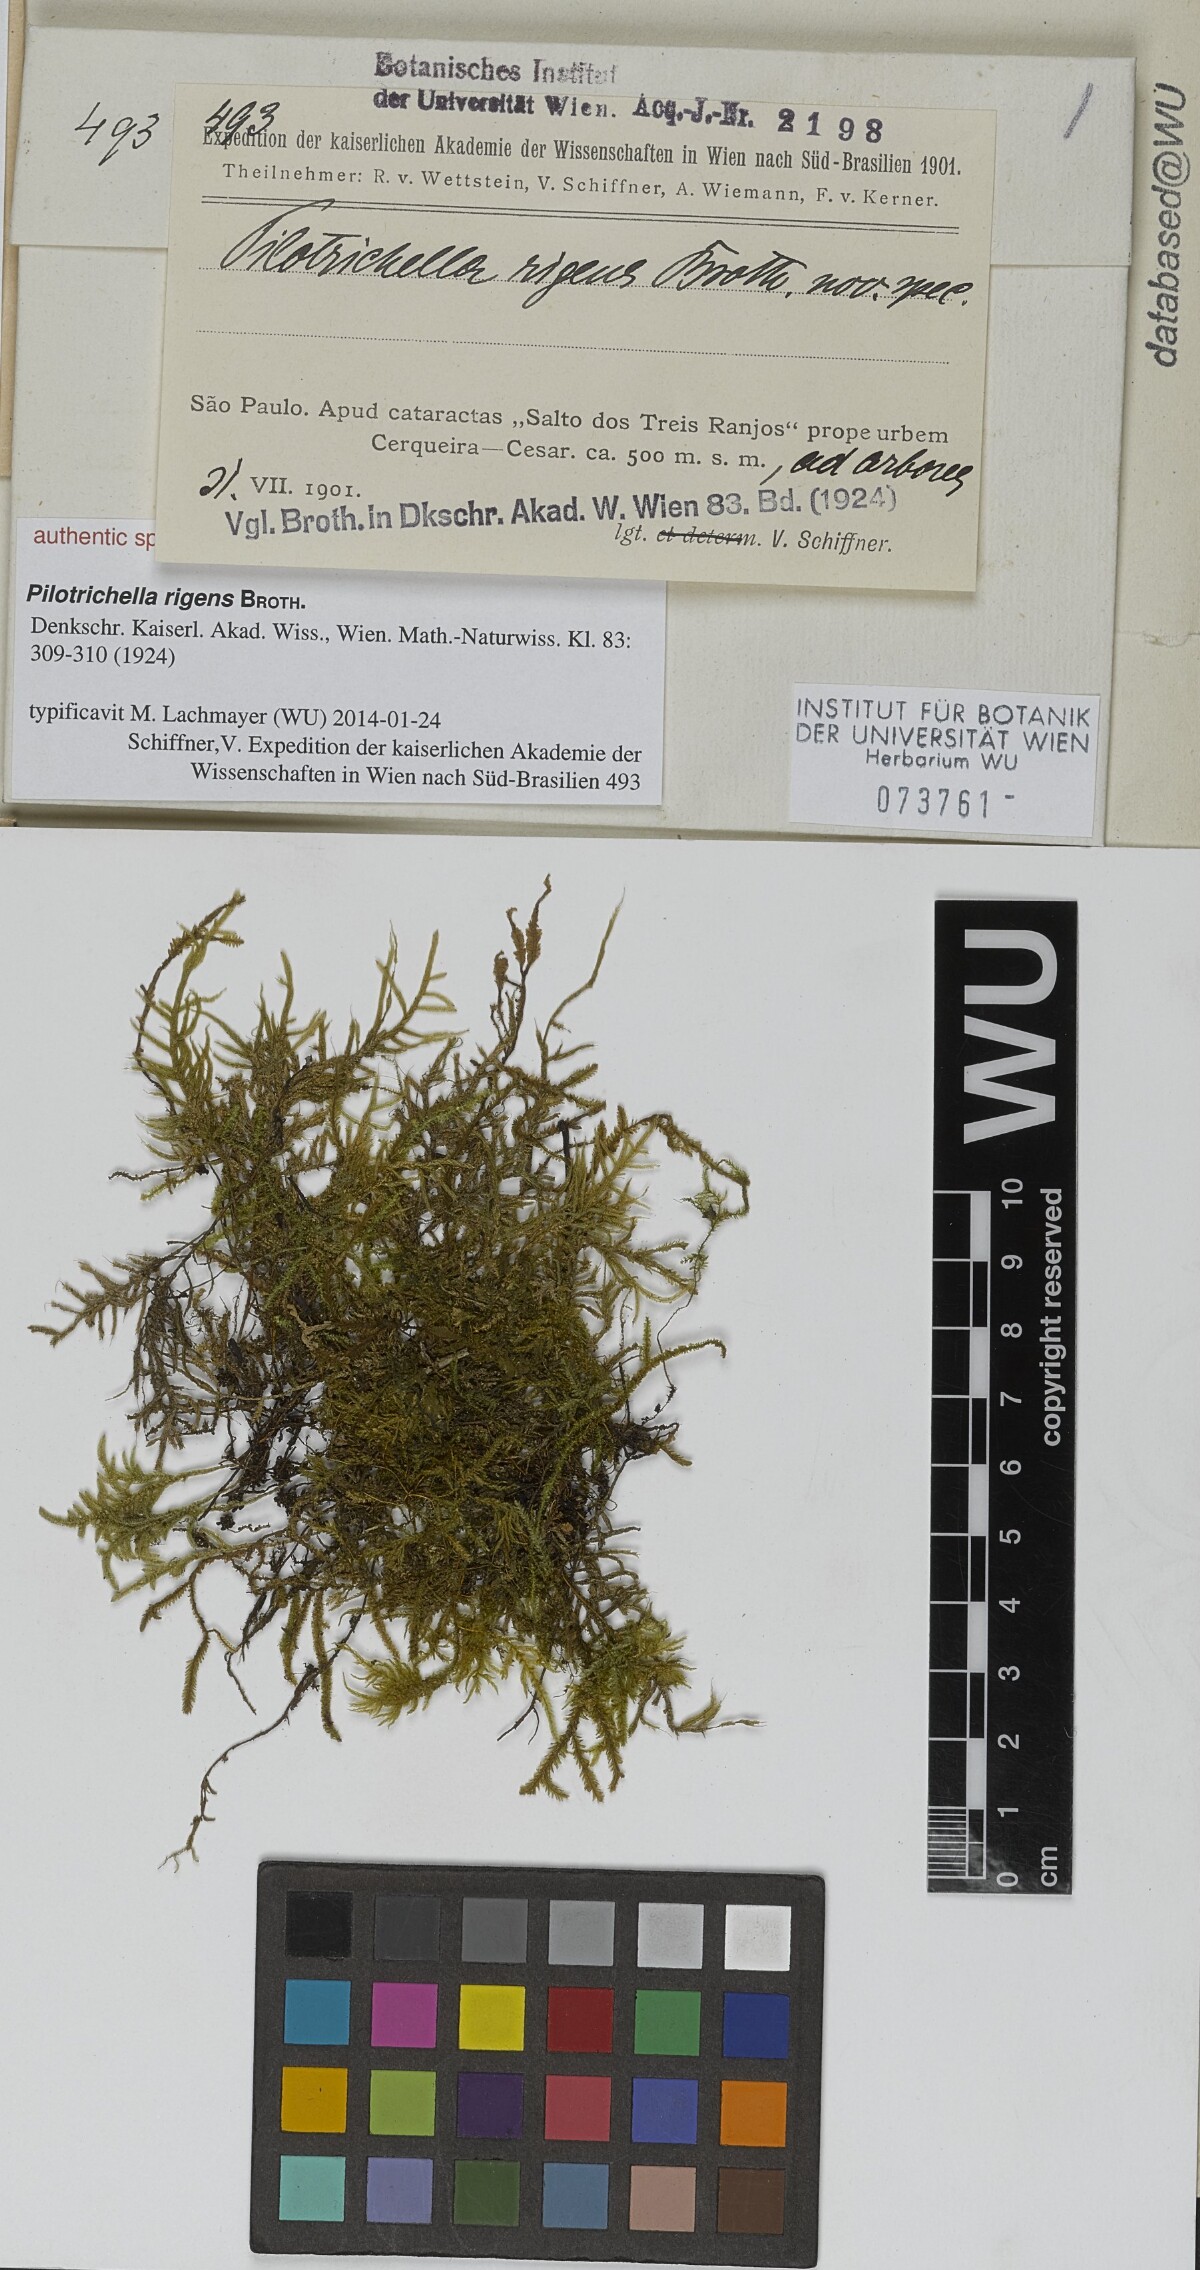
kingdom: Plantae
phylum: Bryophyta
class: Bryopsida
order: Hypnales
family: Orthostichellaceae
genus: Orthostichella
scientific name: Orthostichella pachygastrella
